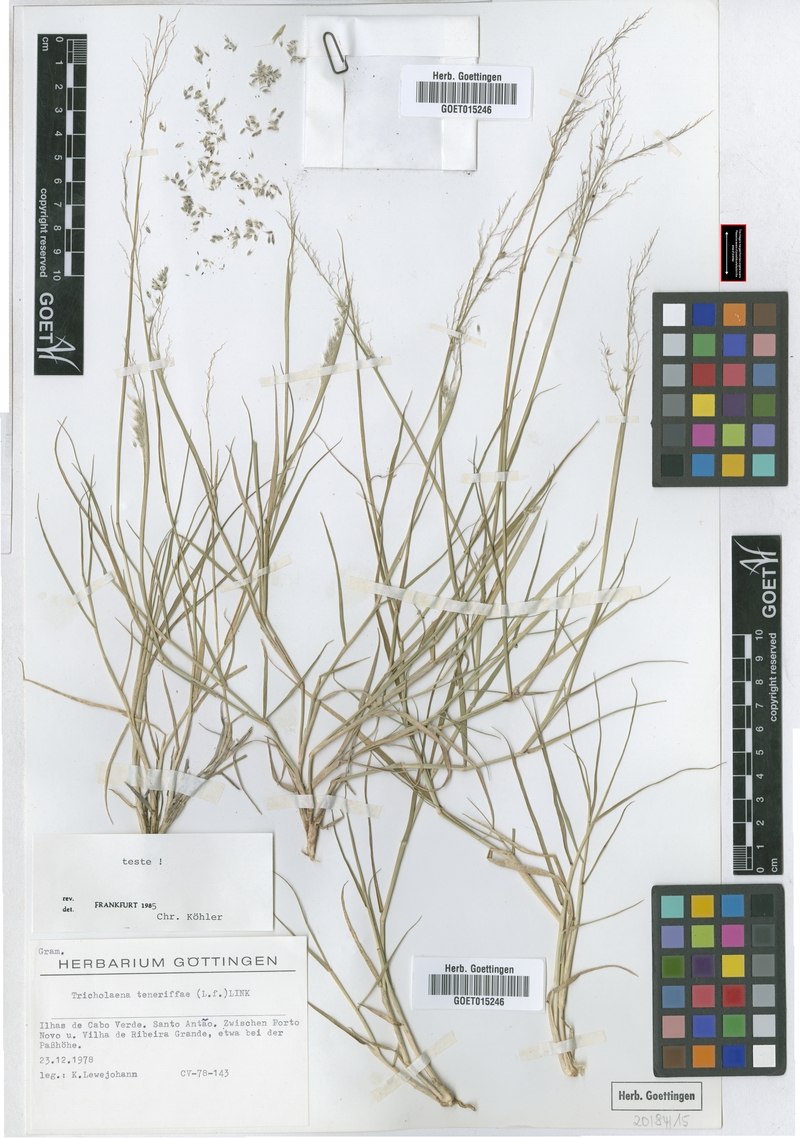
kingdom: Plantae
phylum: Tracheophyta
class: Liliopsida
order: Poales
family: Poaceae
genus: Tricholaena
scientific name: Tricholaena teneriffae
